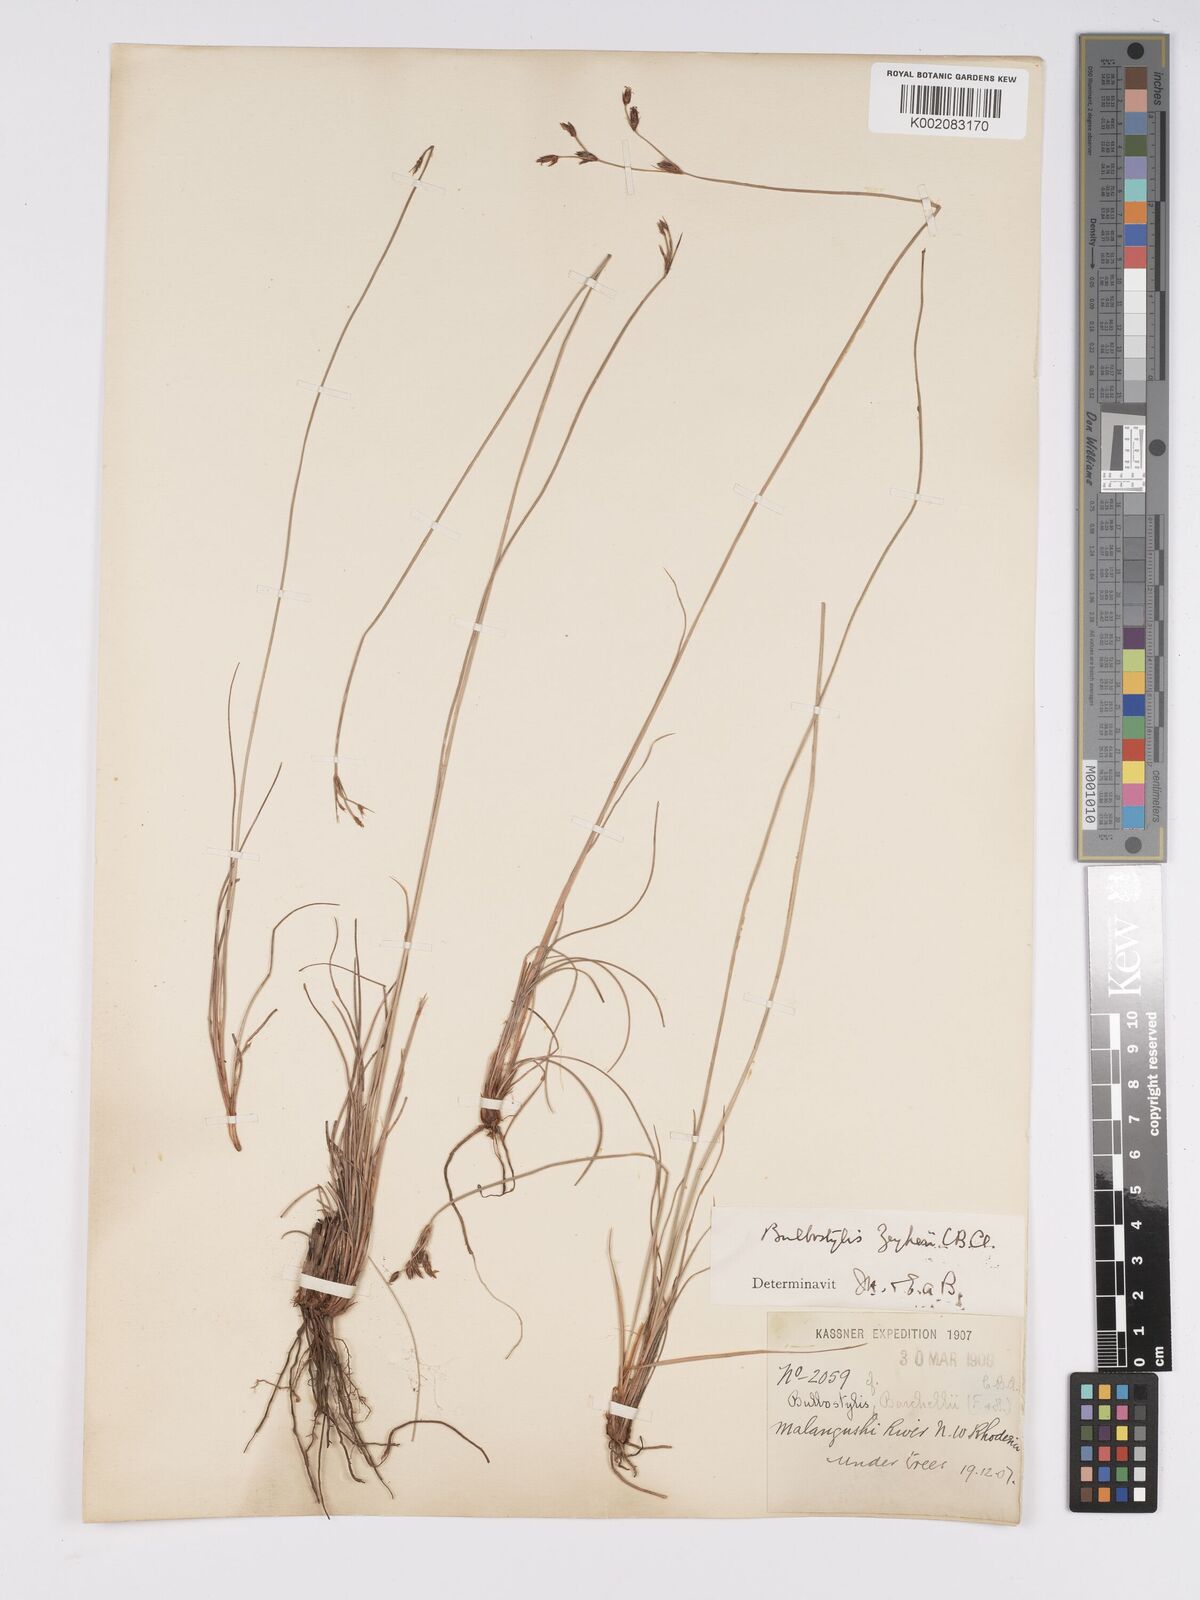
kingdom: Plantae
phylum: Tracheophyta
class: Liliopsida
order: Poales
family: Cyperaceae
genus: Bulbostylis
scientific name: Bulbostylis contexta
